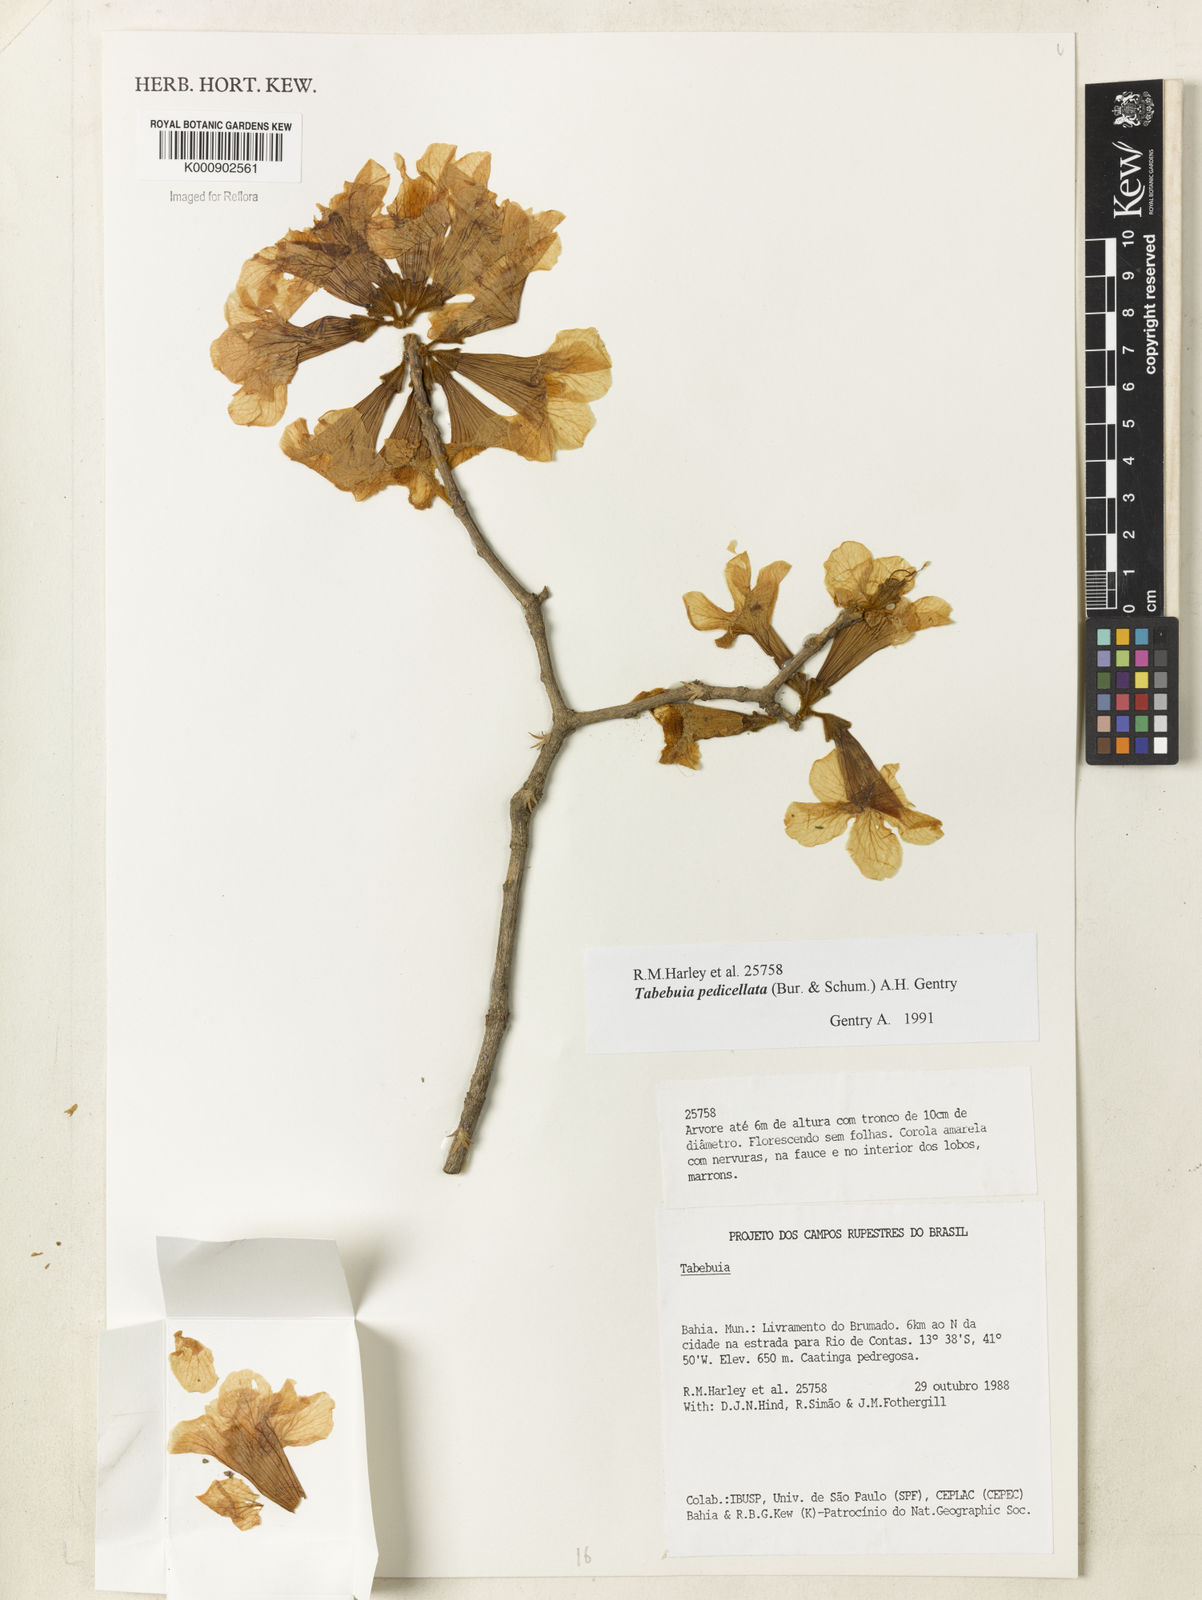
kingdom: Plantae
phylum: Tracheophyta
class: Magnoliopsida
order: Lamiales
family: Bignoniaceae
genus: Handroanthus
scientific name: Handroanthus pedicellatus
